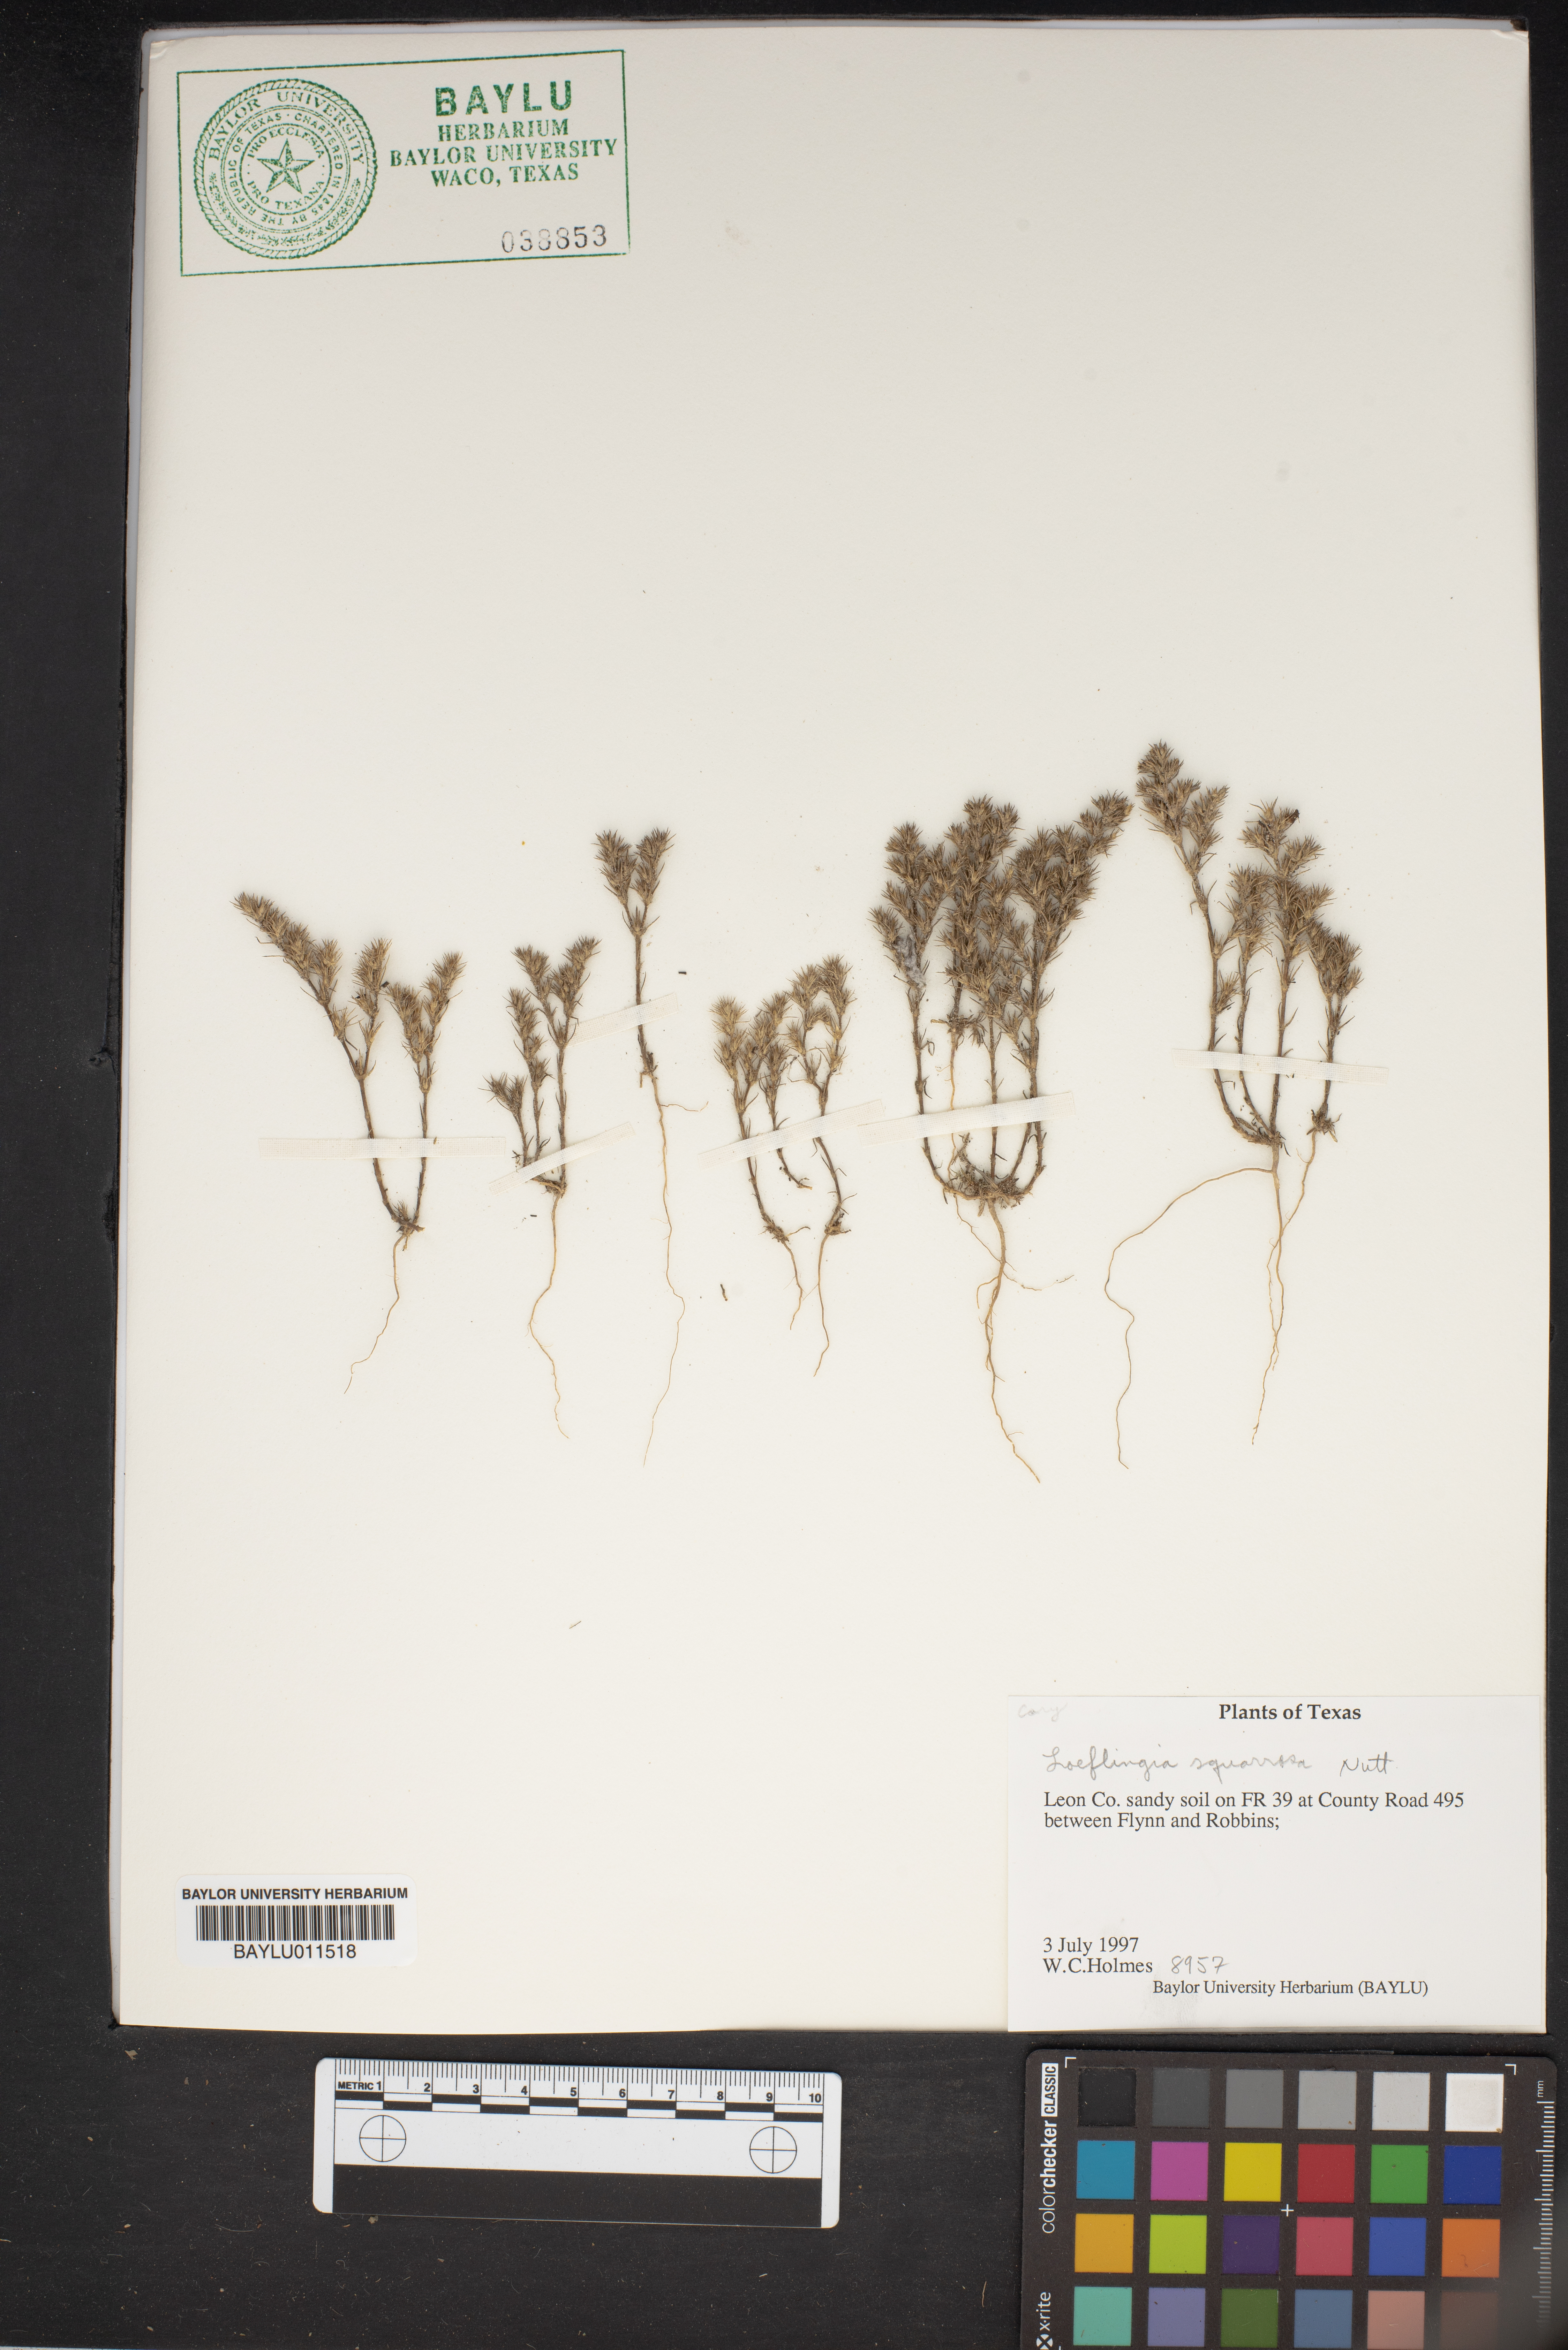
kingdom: Plantae
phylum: Tracheophyta
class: Magnoliopsida
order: Caryophyllales
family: Caryophyllaceae
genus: Loeflingia
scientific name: Loeflingia squarrosa
